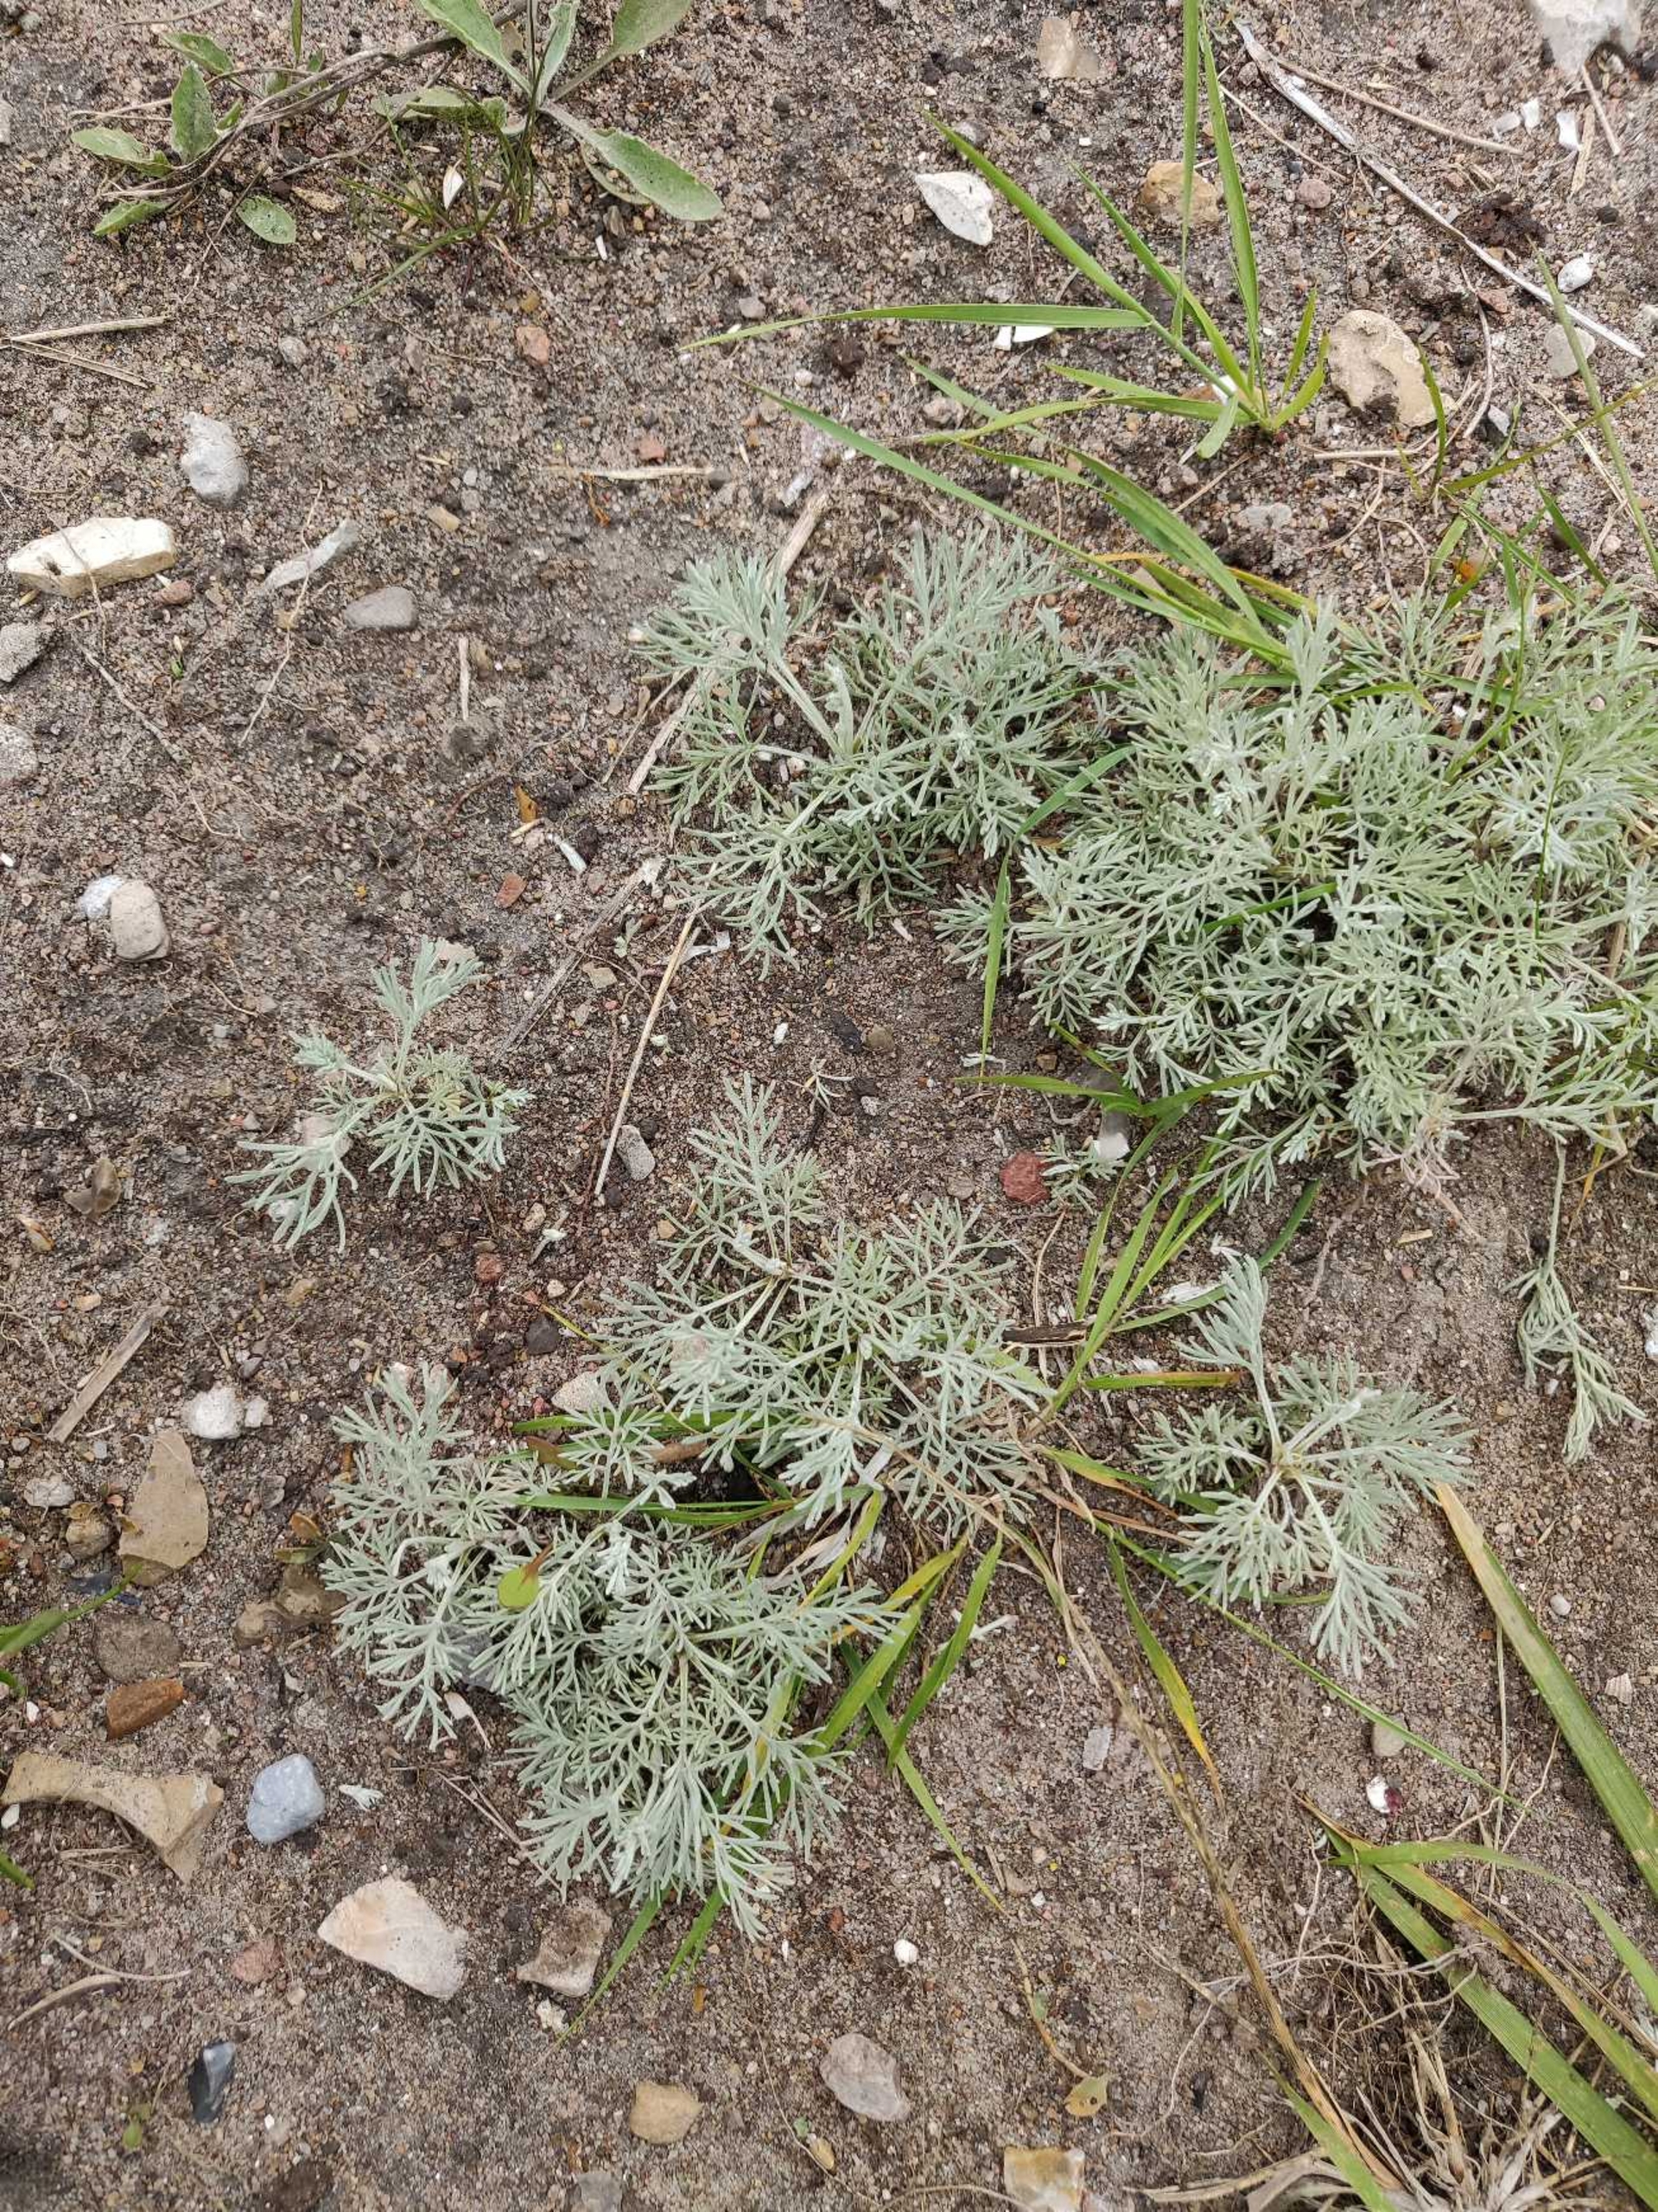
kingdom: Plantae
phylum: Tracheophyta
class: Magnoliopsida
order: Asterales
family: Asteraceae
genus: Artemisia
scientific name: Artemisia maritima
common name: Strandmalurt
